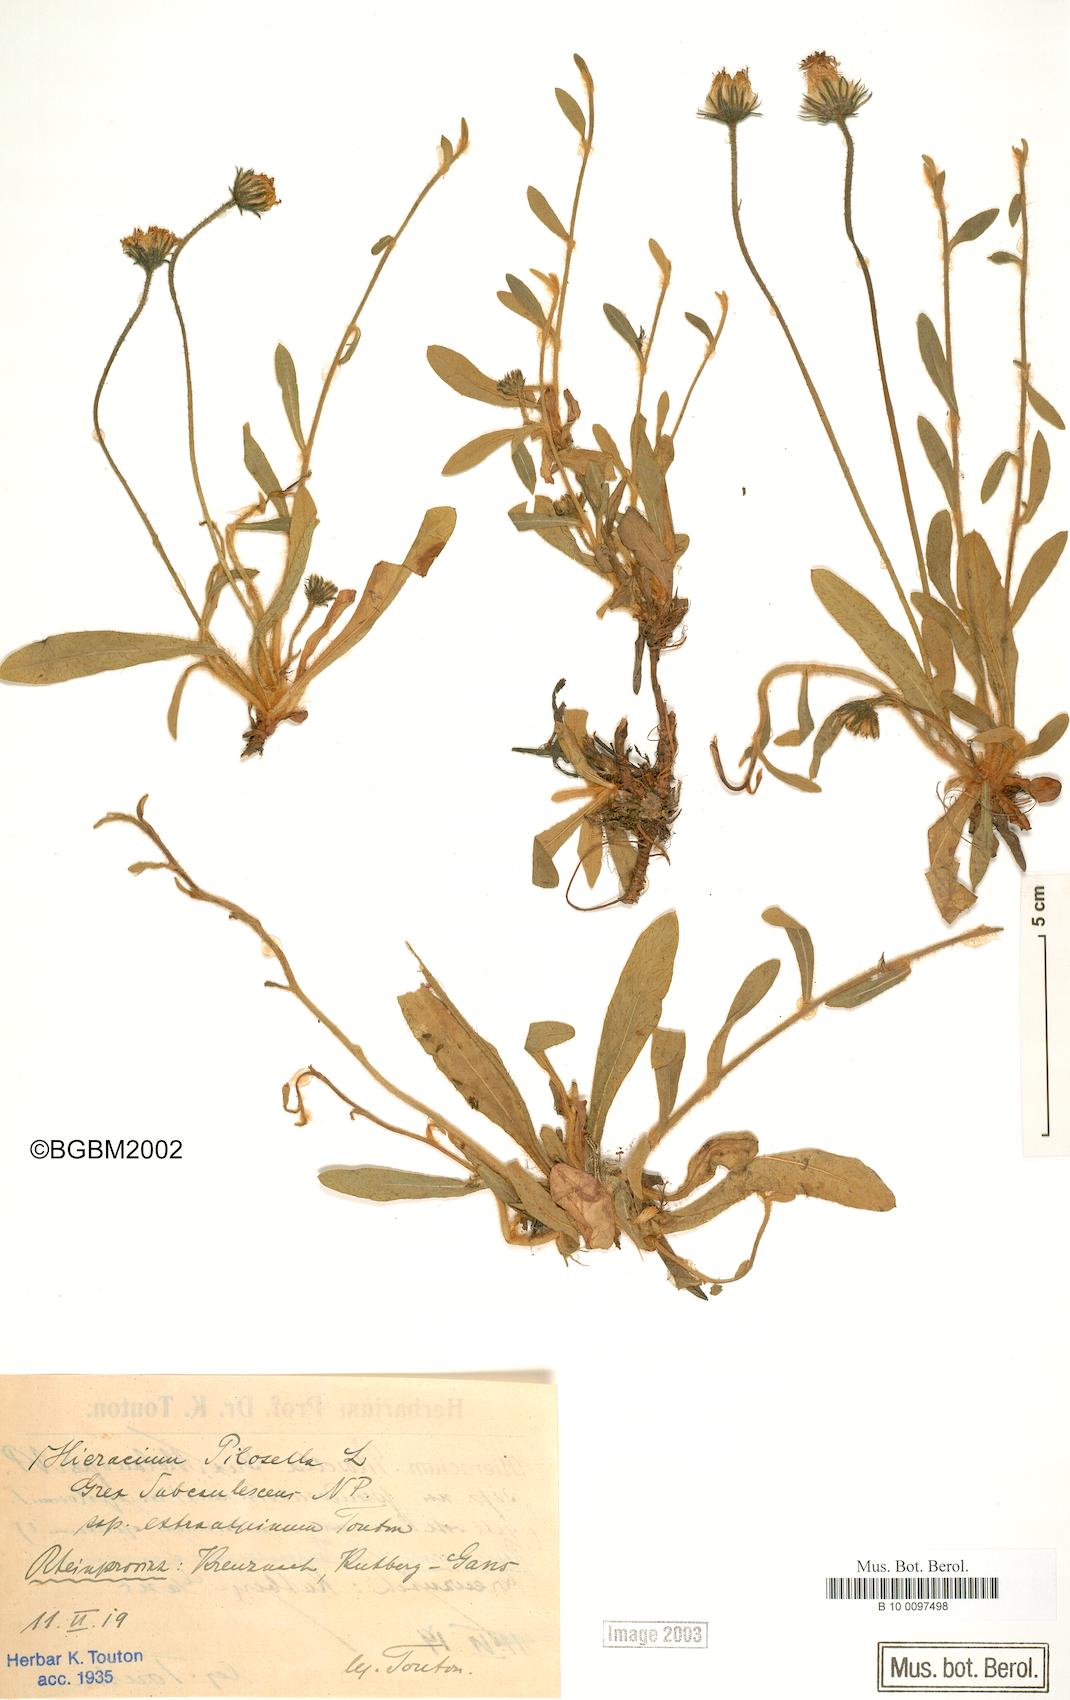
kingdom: Plantae
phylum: Tracheophyta
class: Magnoliopsida
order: Asterales
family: Asteraceae
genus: Pilosella
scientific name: Pilosella officinarum
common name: Mouse-ear hawkweed
